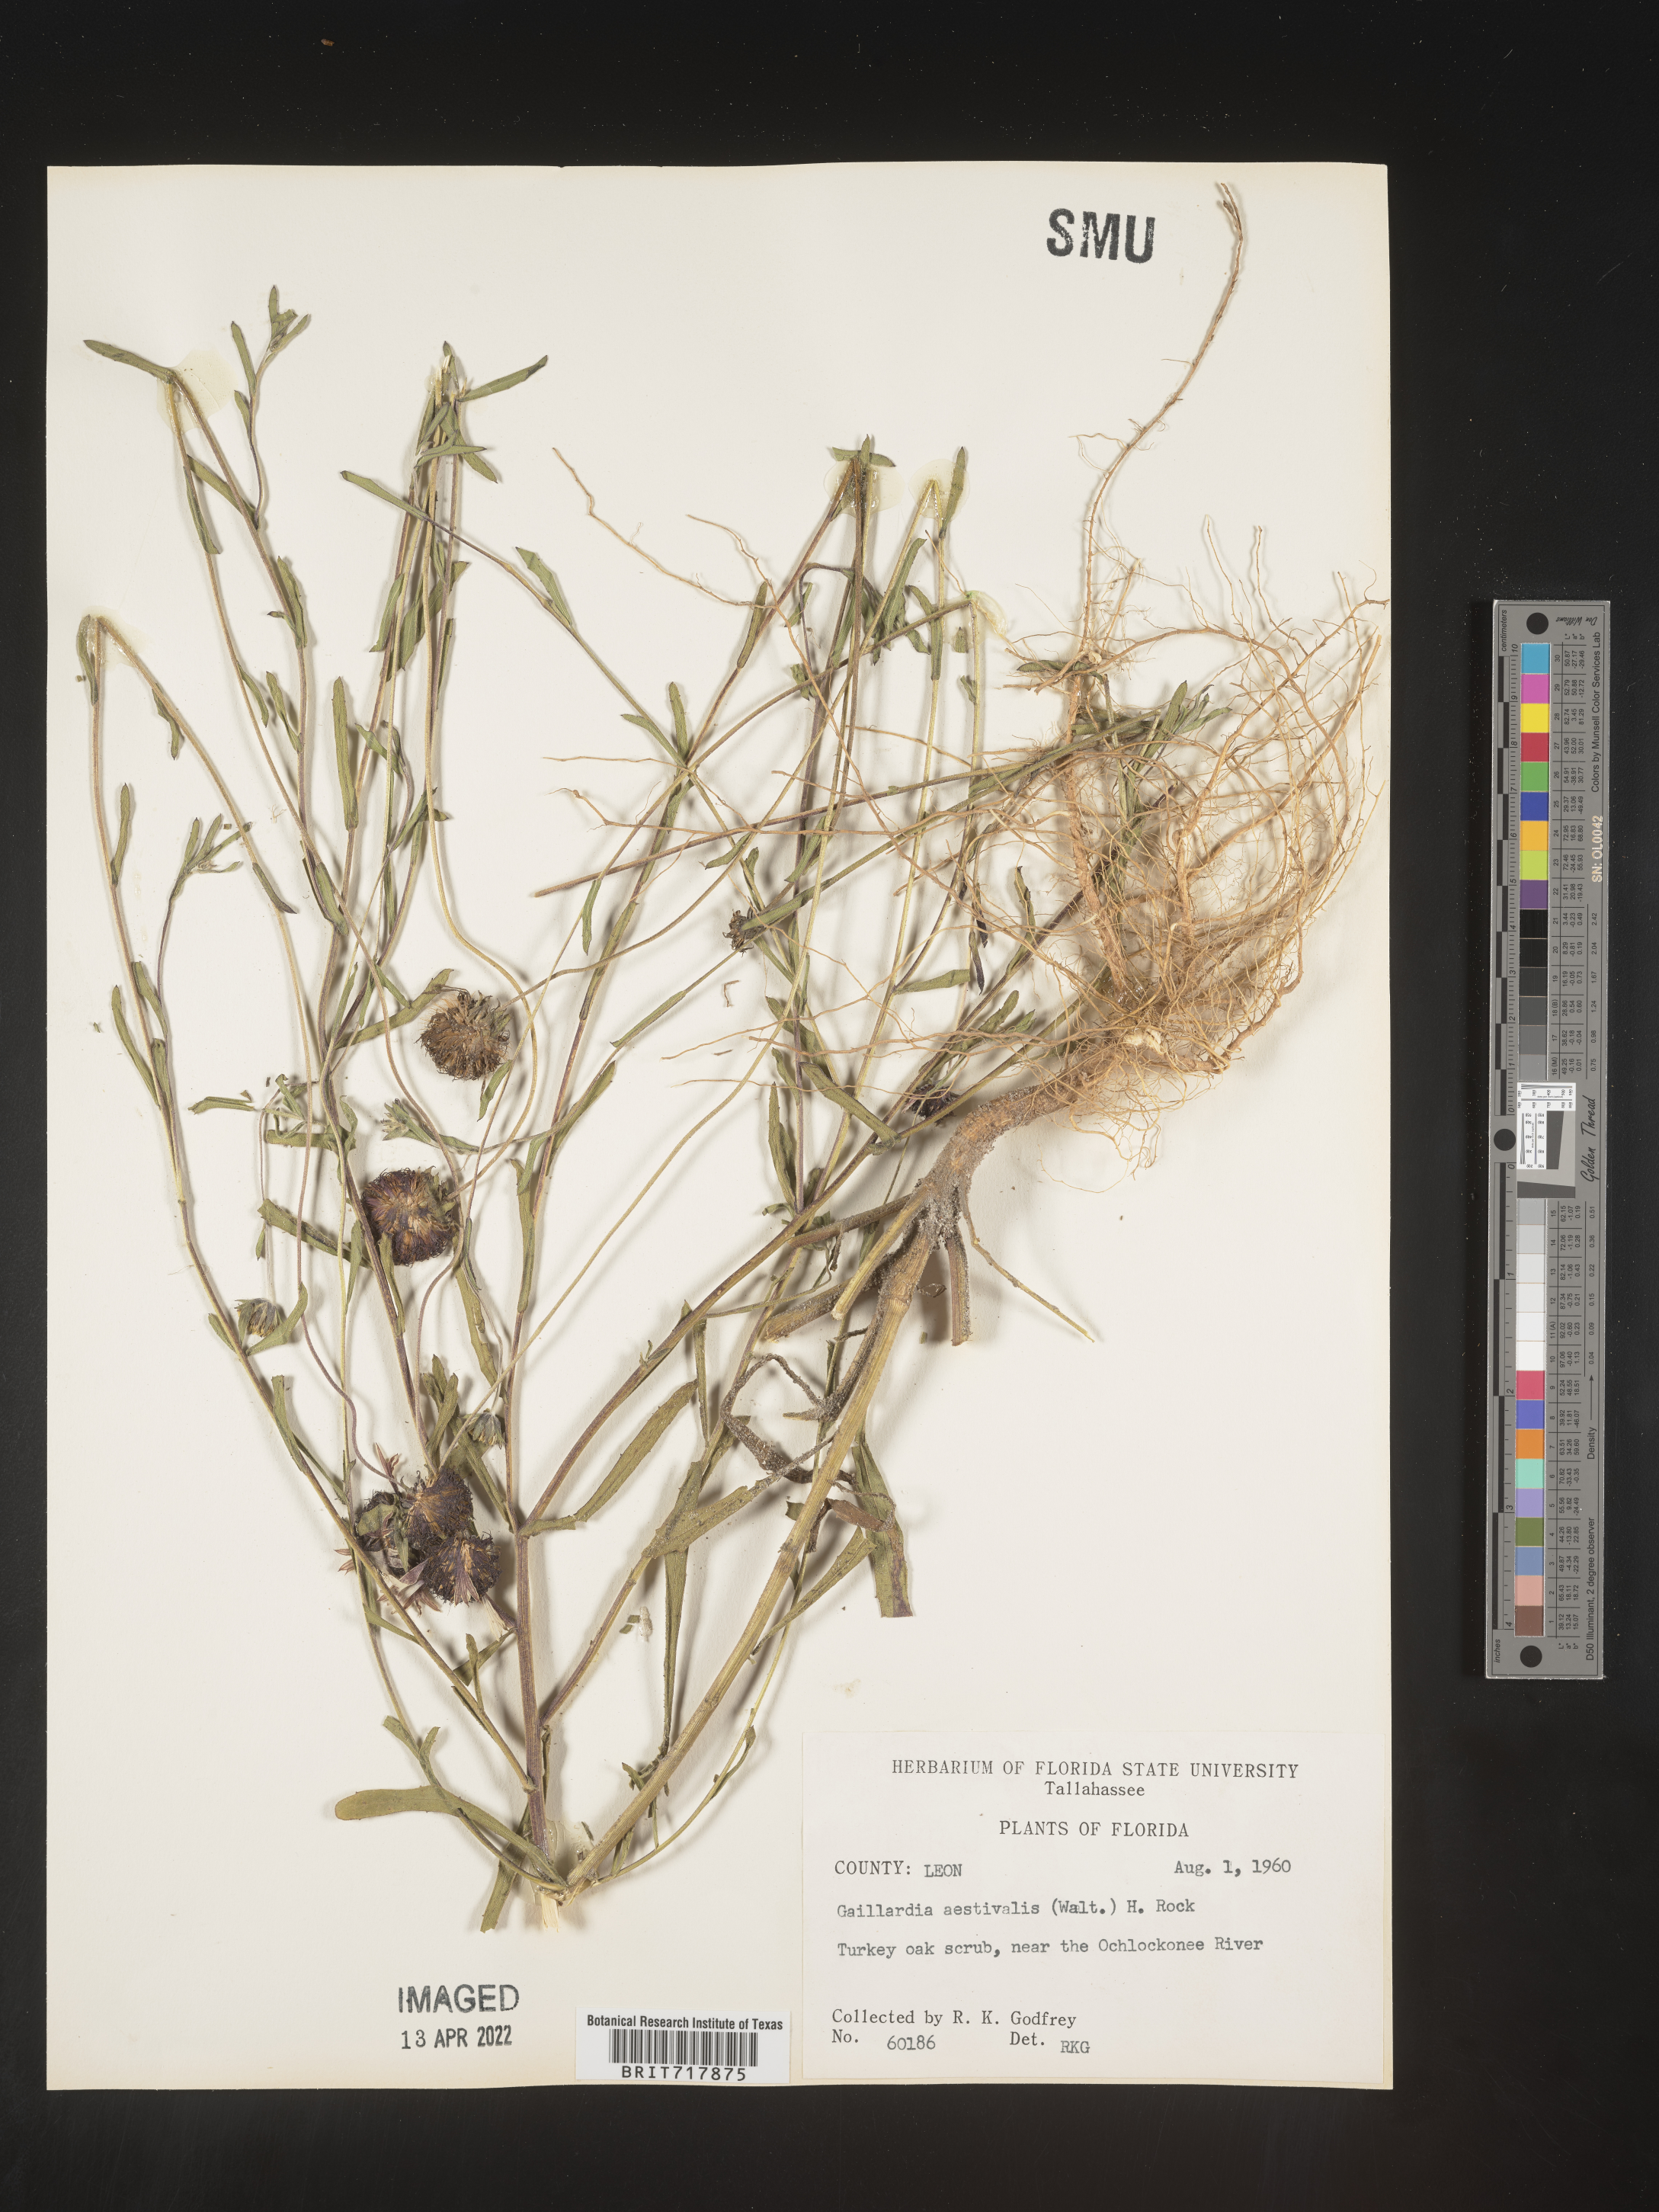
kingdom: Plantae
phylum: Tracheophyta
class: Magnoliopsida
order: Asterales
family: Asteraceae
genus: Gaillardia
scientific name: Gaillardia aestivalis
